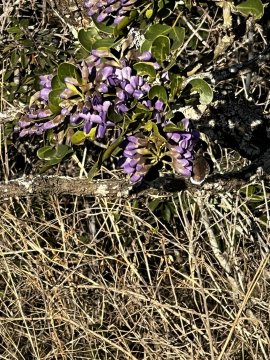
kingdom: Animalia
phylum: Arthropoda
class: Insecta
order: Lepidoptera
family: Hesperiidae
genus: Erynnis
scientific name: Erynnis funeralis
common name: Funereal Duskywing
